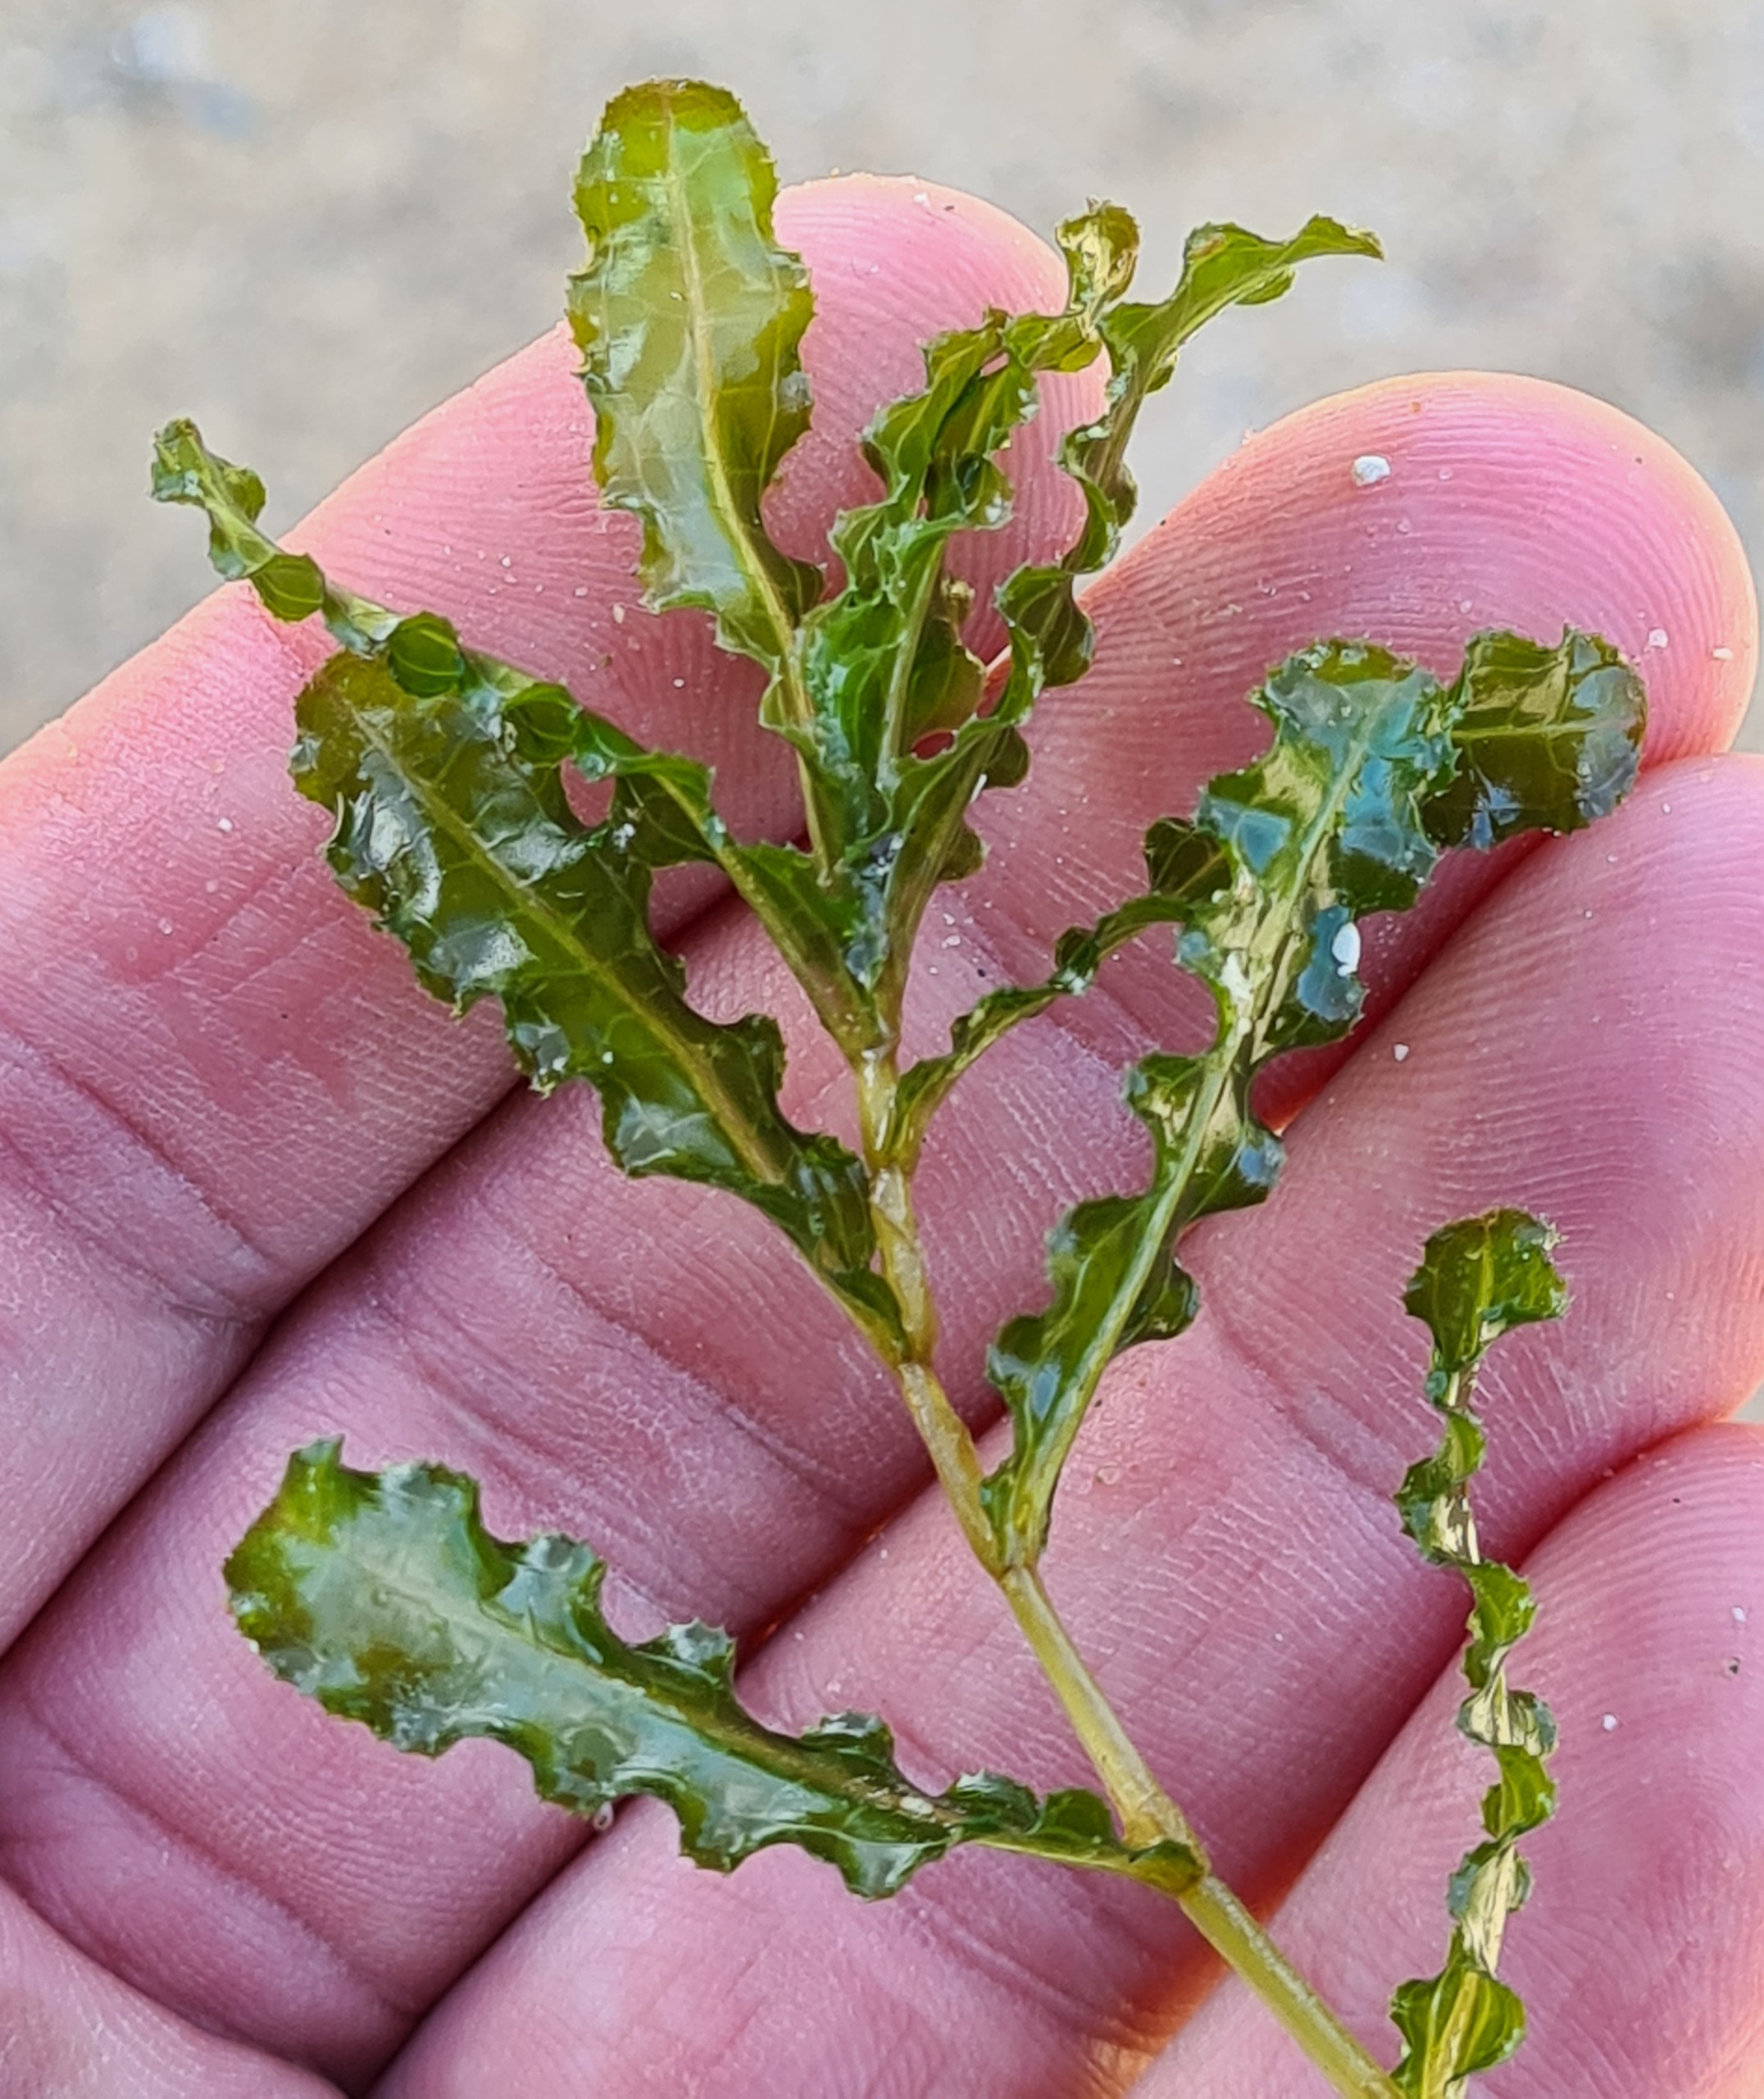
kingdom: Plantae
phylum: Tracheophyta
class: Liliopsida
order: Alismatales
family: Potamogetonaceae
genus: Potamogeton
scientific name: Potamogeton crispus
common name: Kruset vandaks
